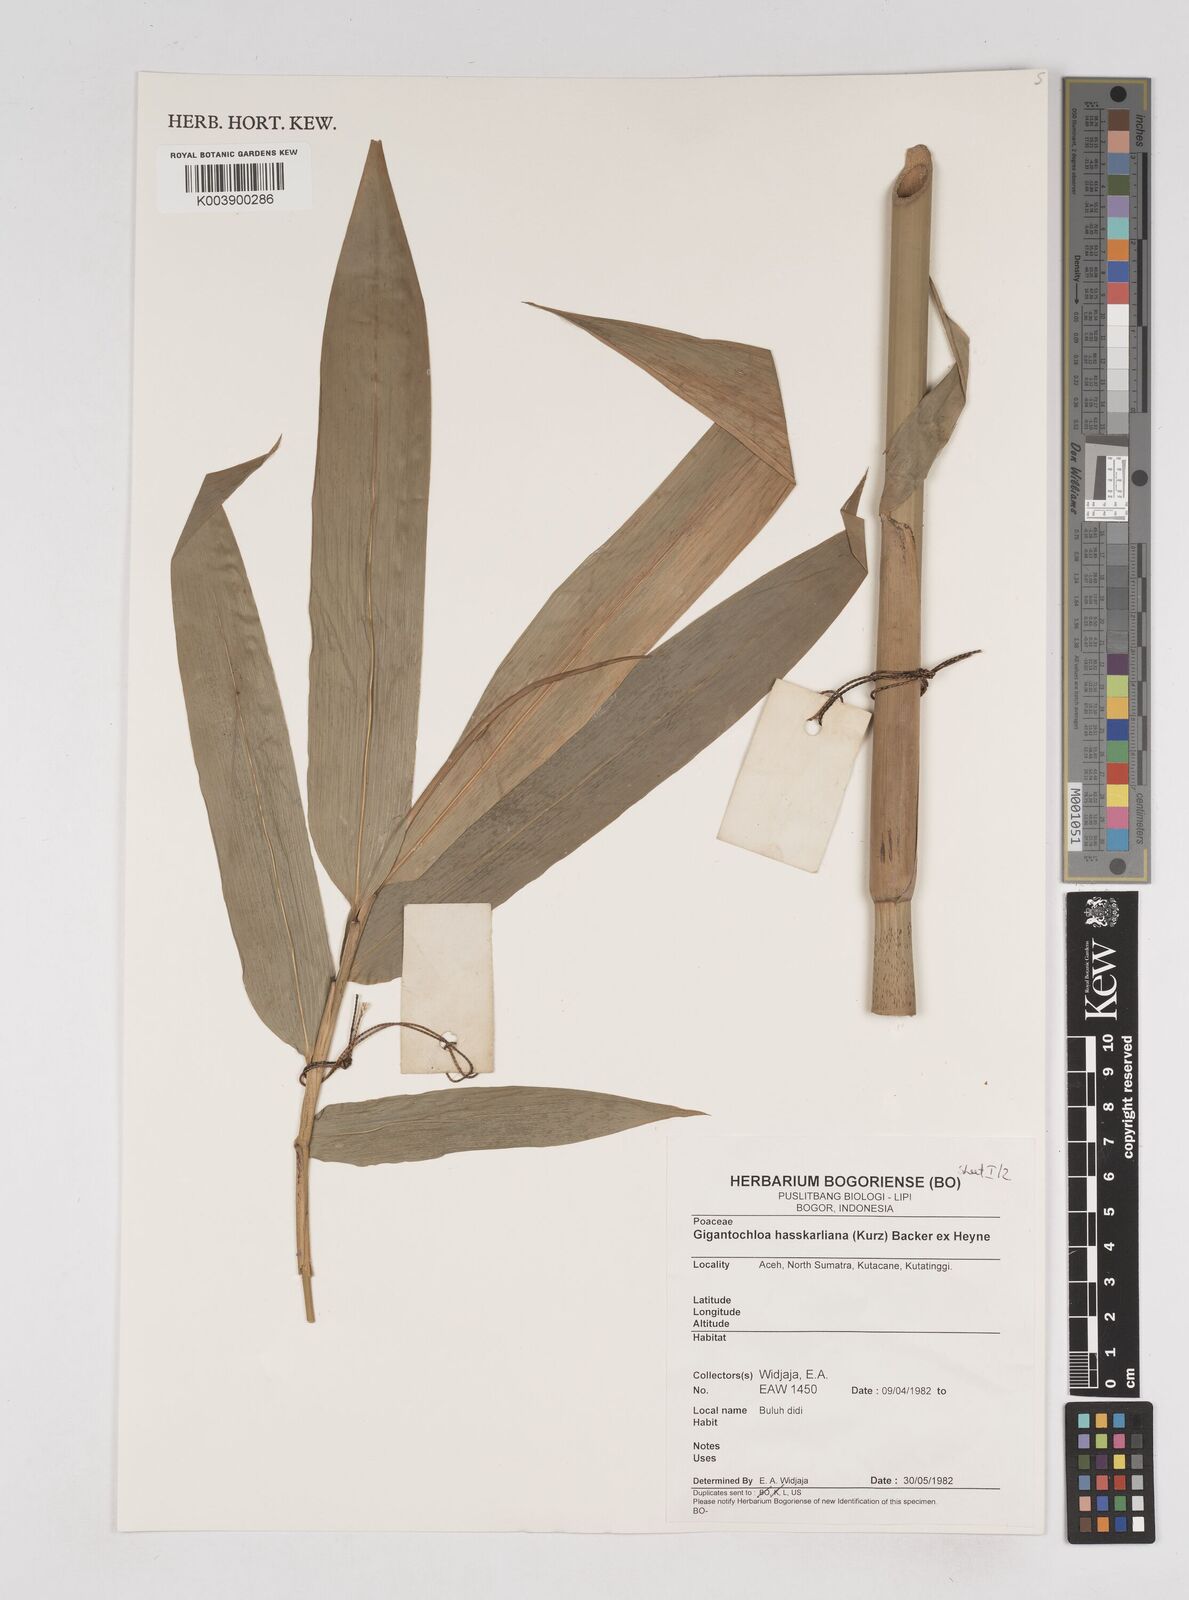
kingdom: Plantae
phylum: Tracheophyta
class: Liliopsida
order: Poales
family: Poaceae
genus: Gigantochloa
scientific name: Gigantochloa hasskarliana
